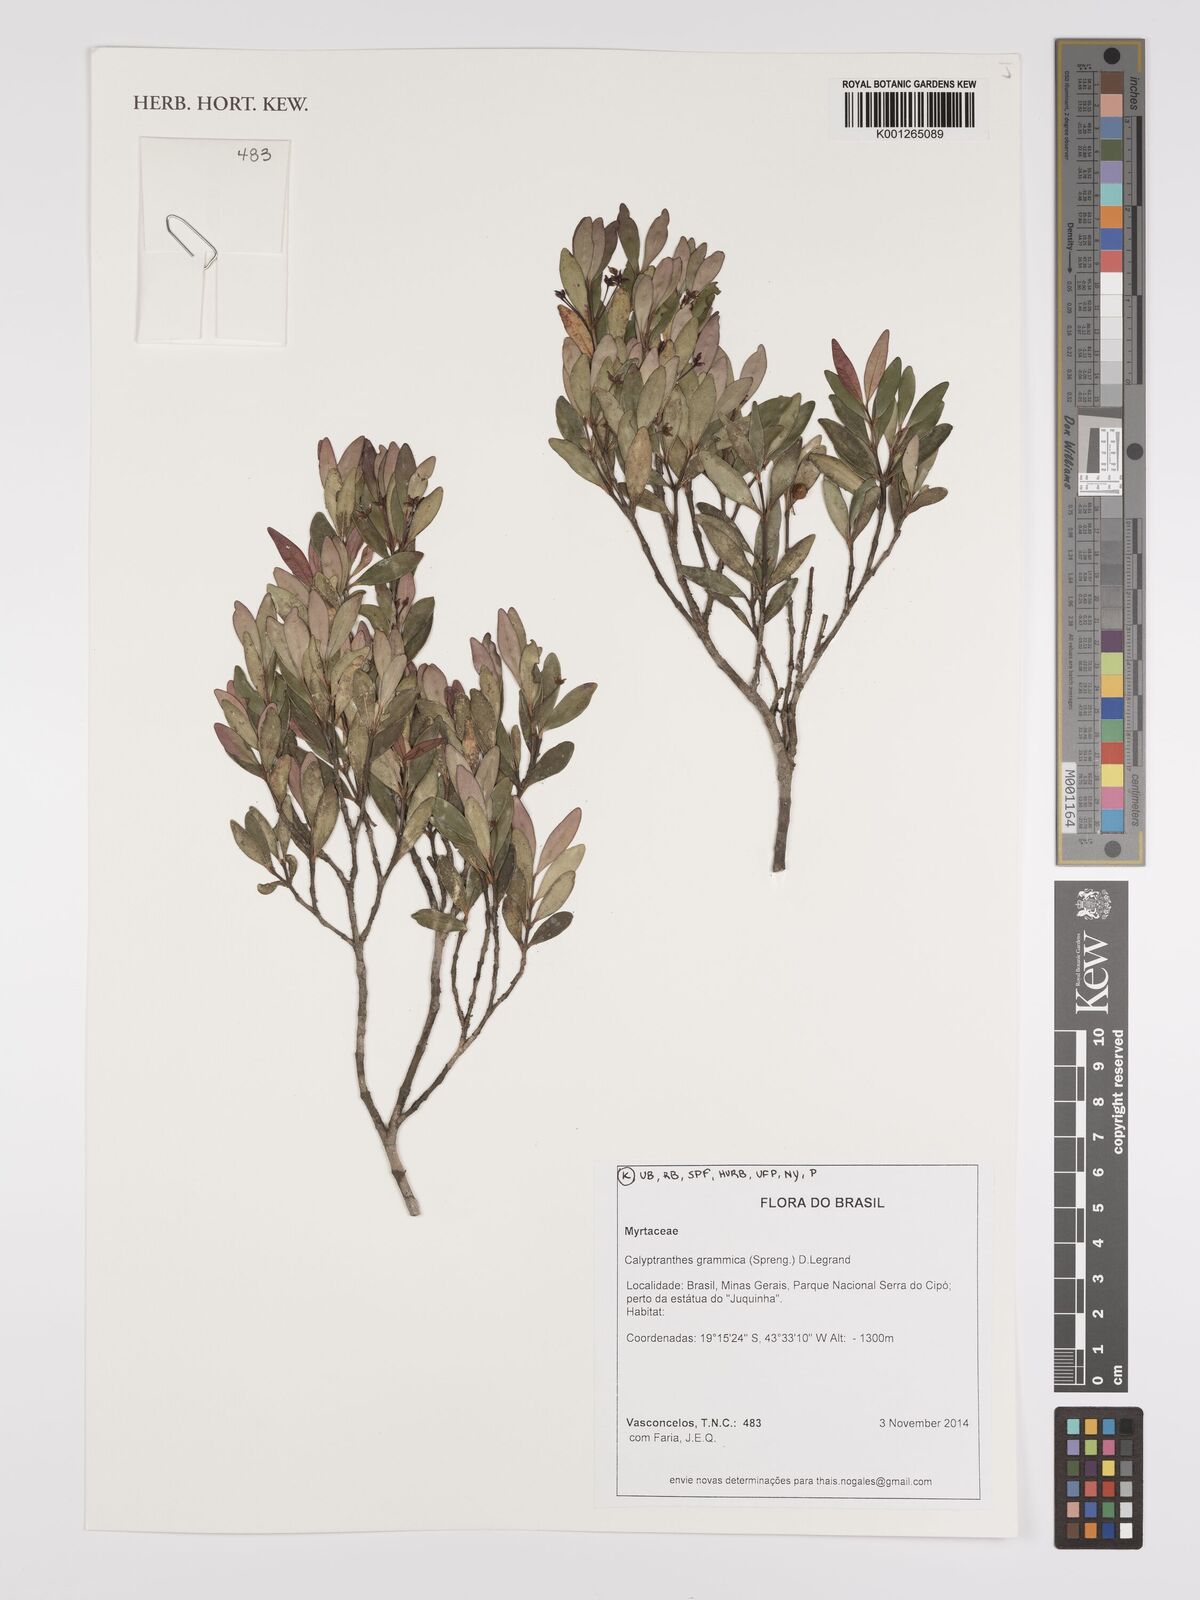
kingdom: Plantae
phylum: Tracheophyta
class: Magnoliopsida
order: Myrtales
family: Myrtaceae
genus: Myrcia
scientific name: Myrcia grammica
